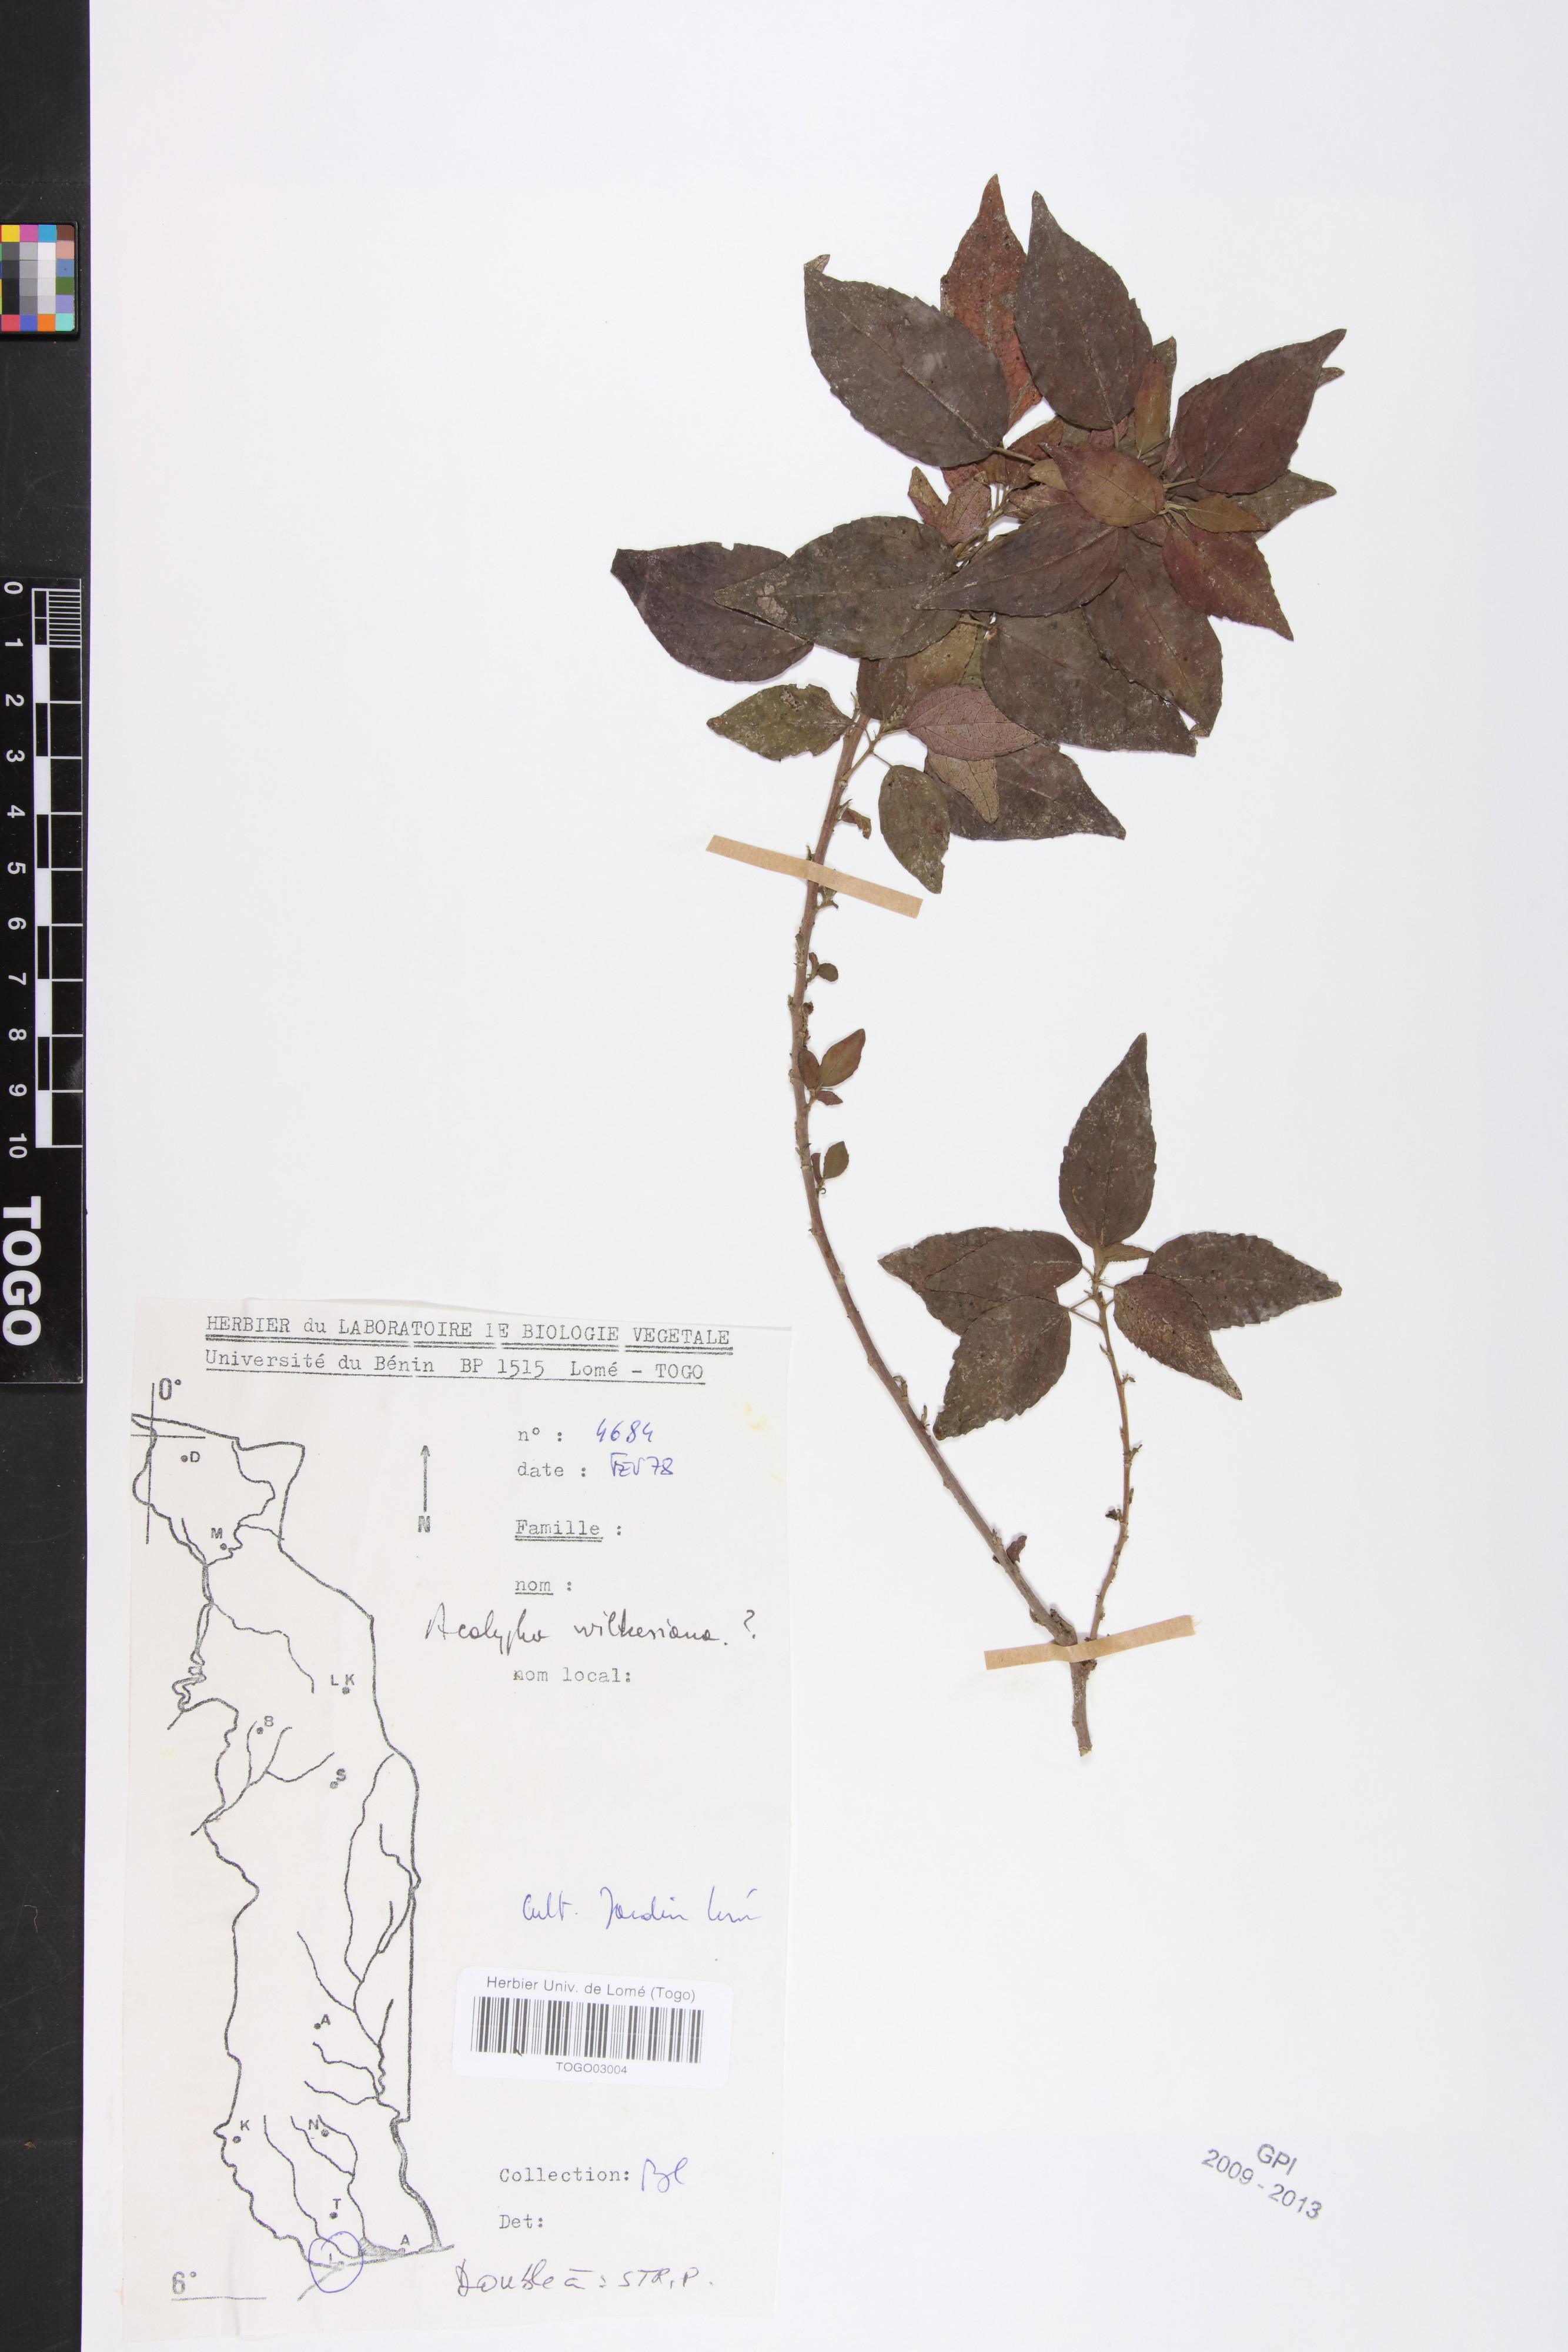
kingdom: Plantae
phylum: Tracheophyta
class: Magnoliopsida
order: Malpighiales
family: Euphorbiaceae
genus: Acalypha
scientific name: Acalypha paniculata
